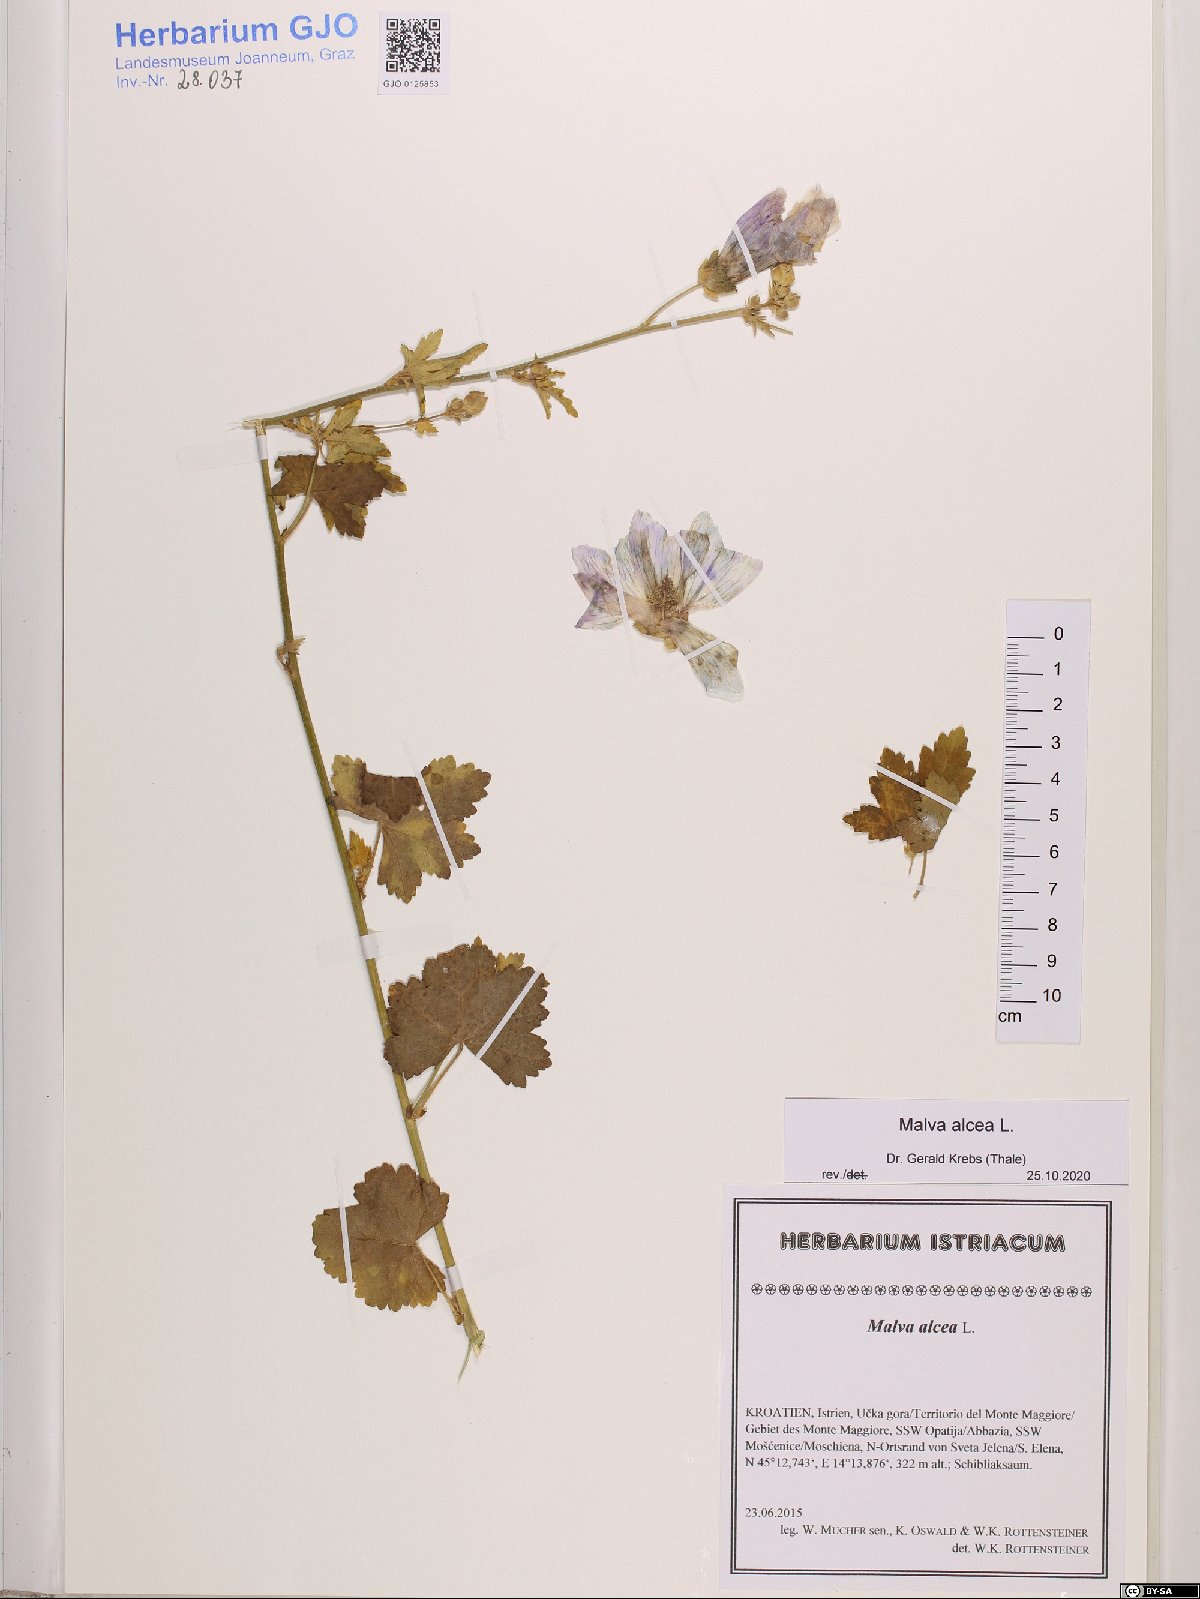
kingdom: Plantae
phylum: Tracheophyta
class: Magnoliopsida
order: Malvales
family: Malvaceae
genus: Malva
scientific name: Malva alcea
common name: Greater musk-mallow
